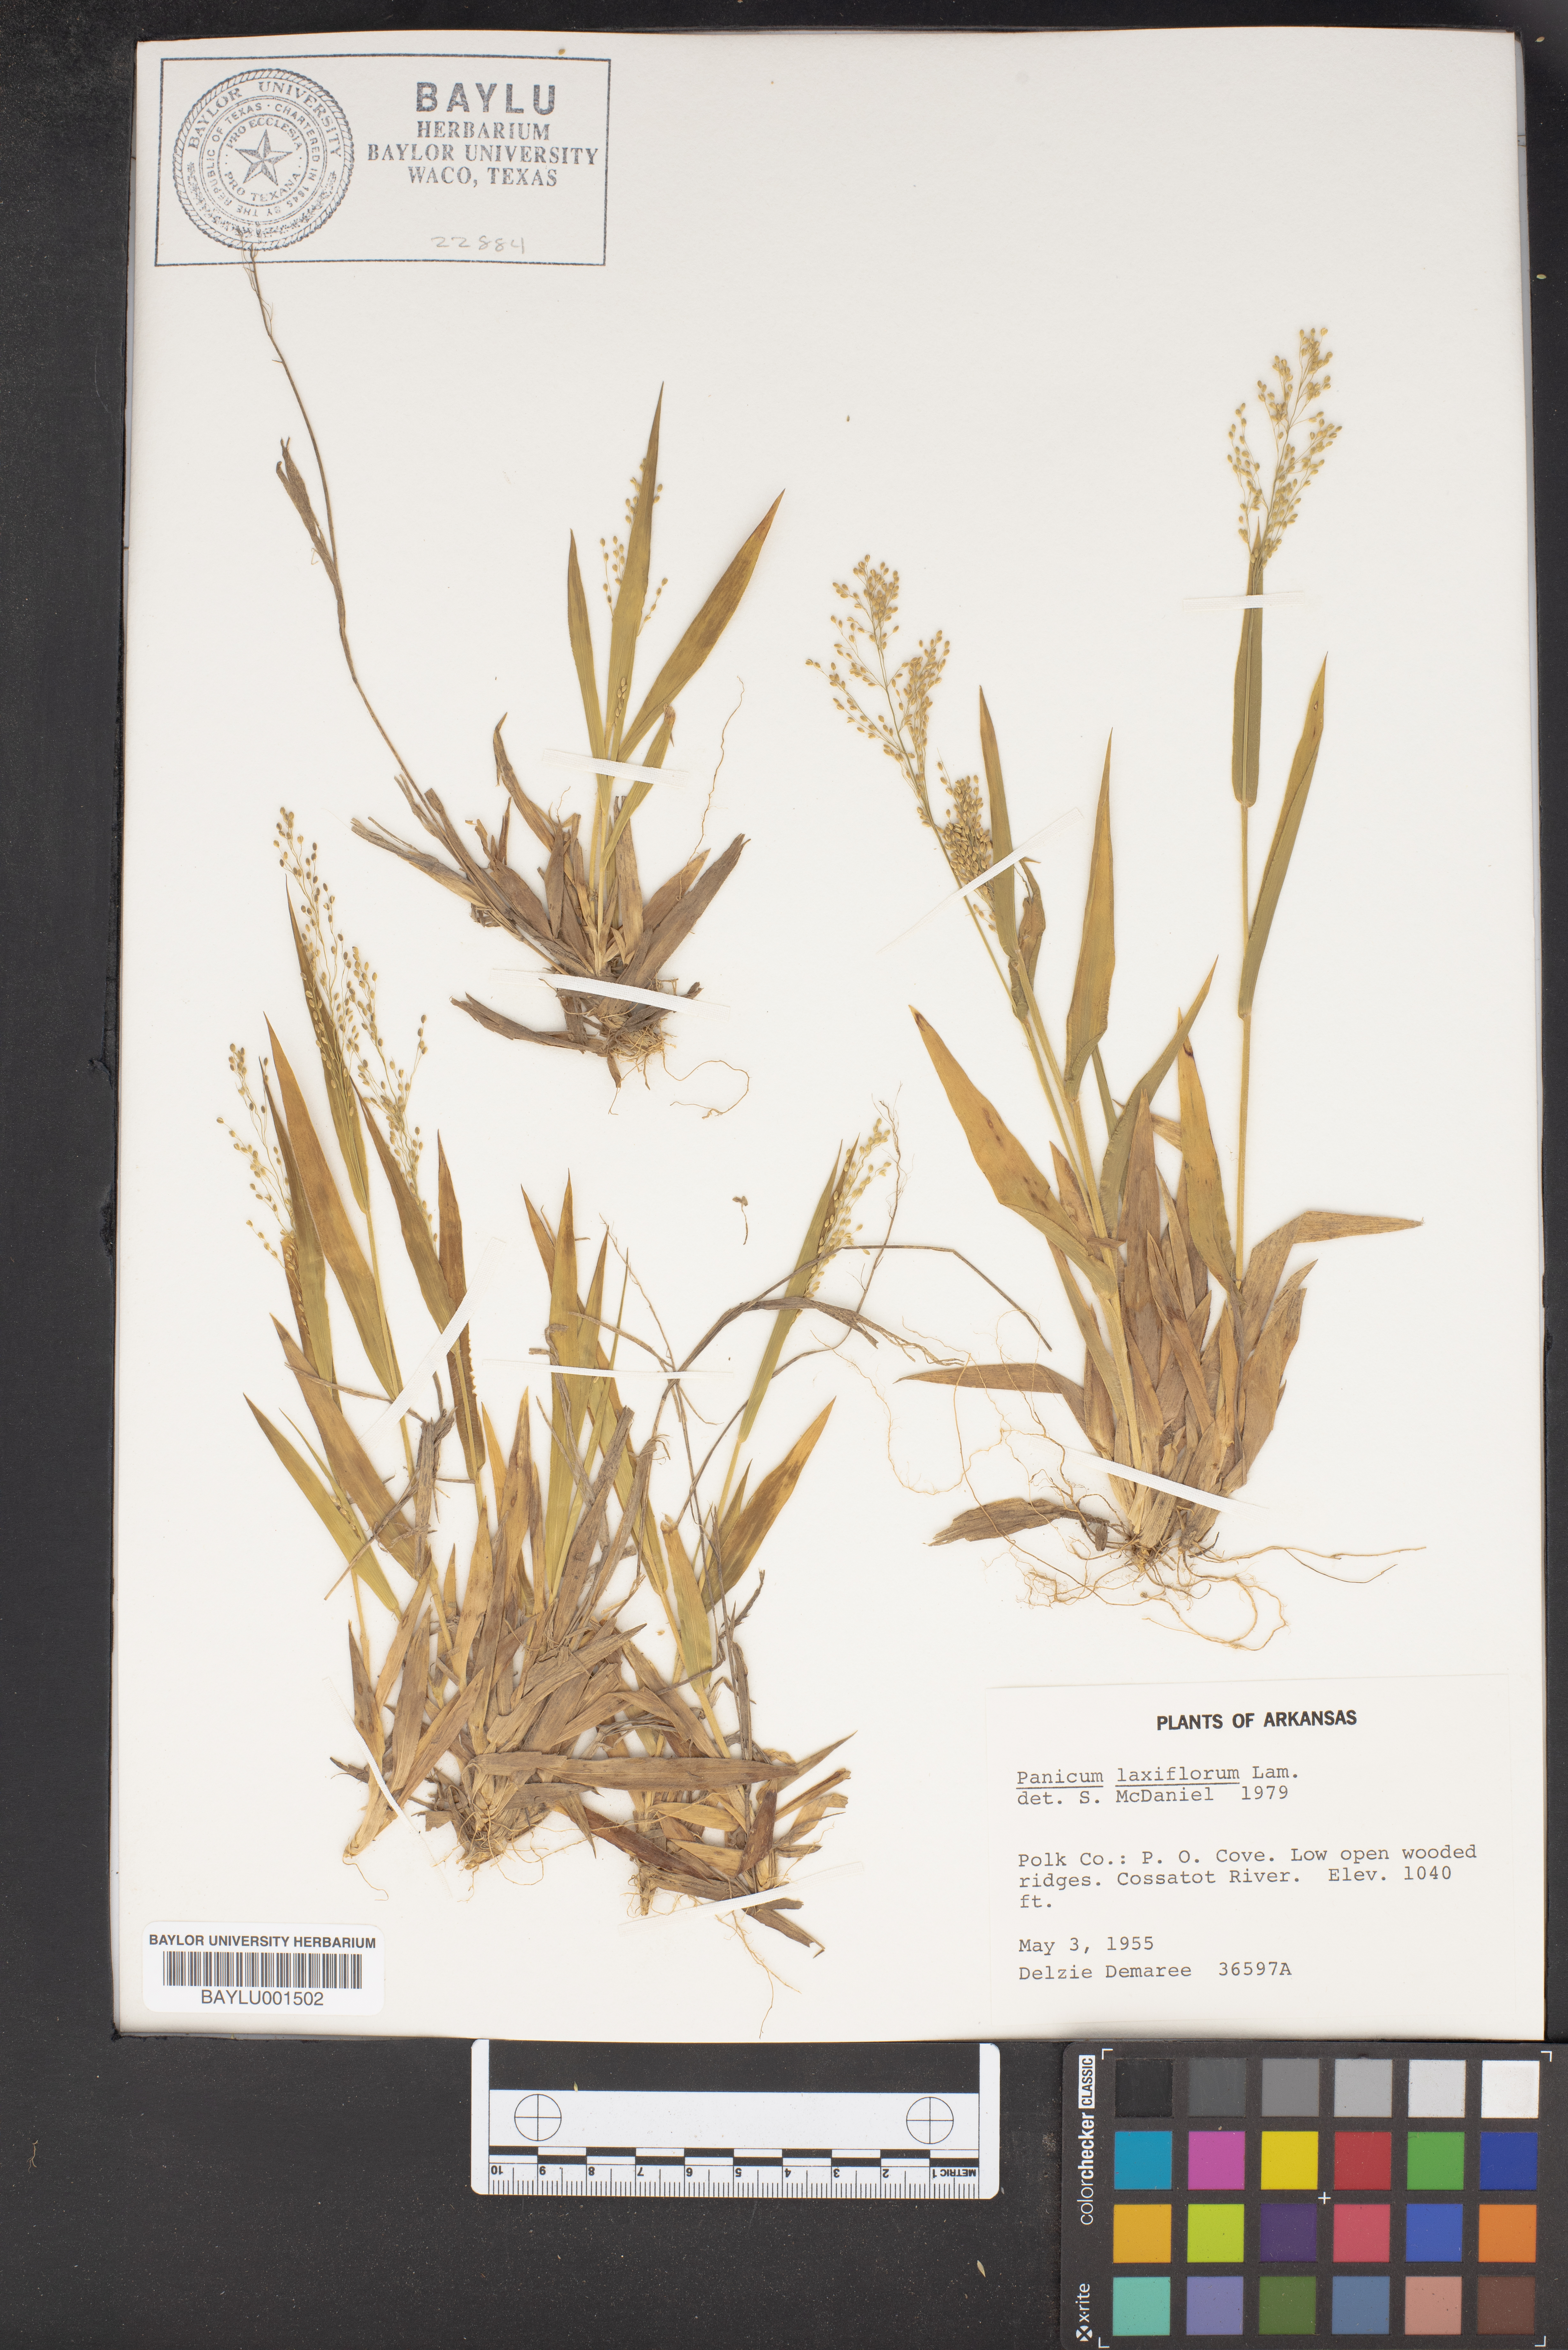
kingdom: Plantae
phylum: Tracheophyta
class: Liliopsida
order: Poales
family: Poaceae
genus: Dichanthelium
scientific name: Dichanthelium laxiflorum
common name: Soft-tuft panic grass
